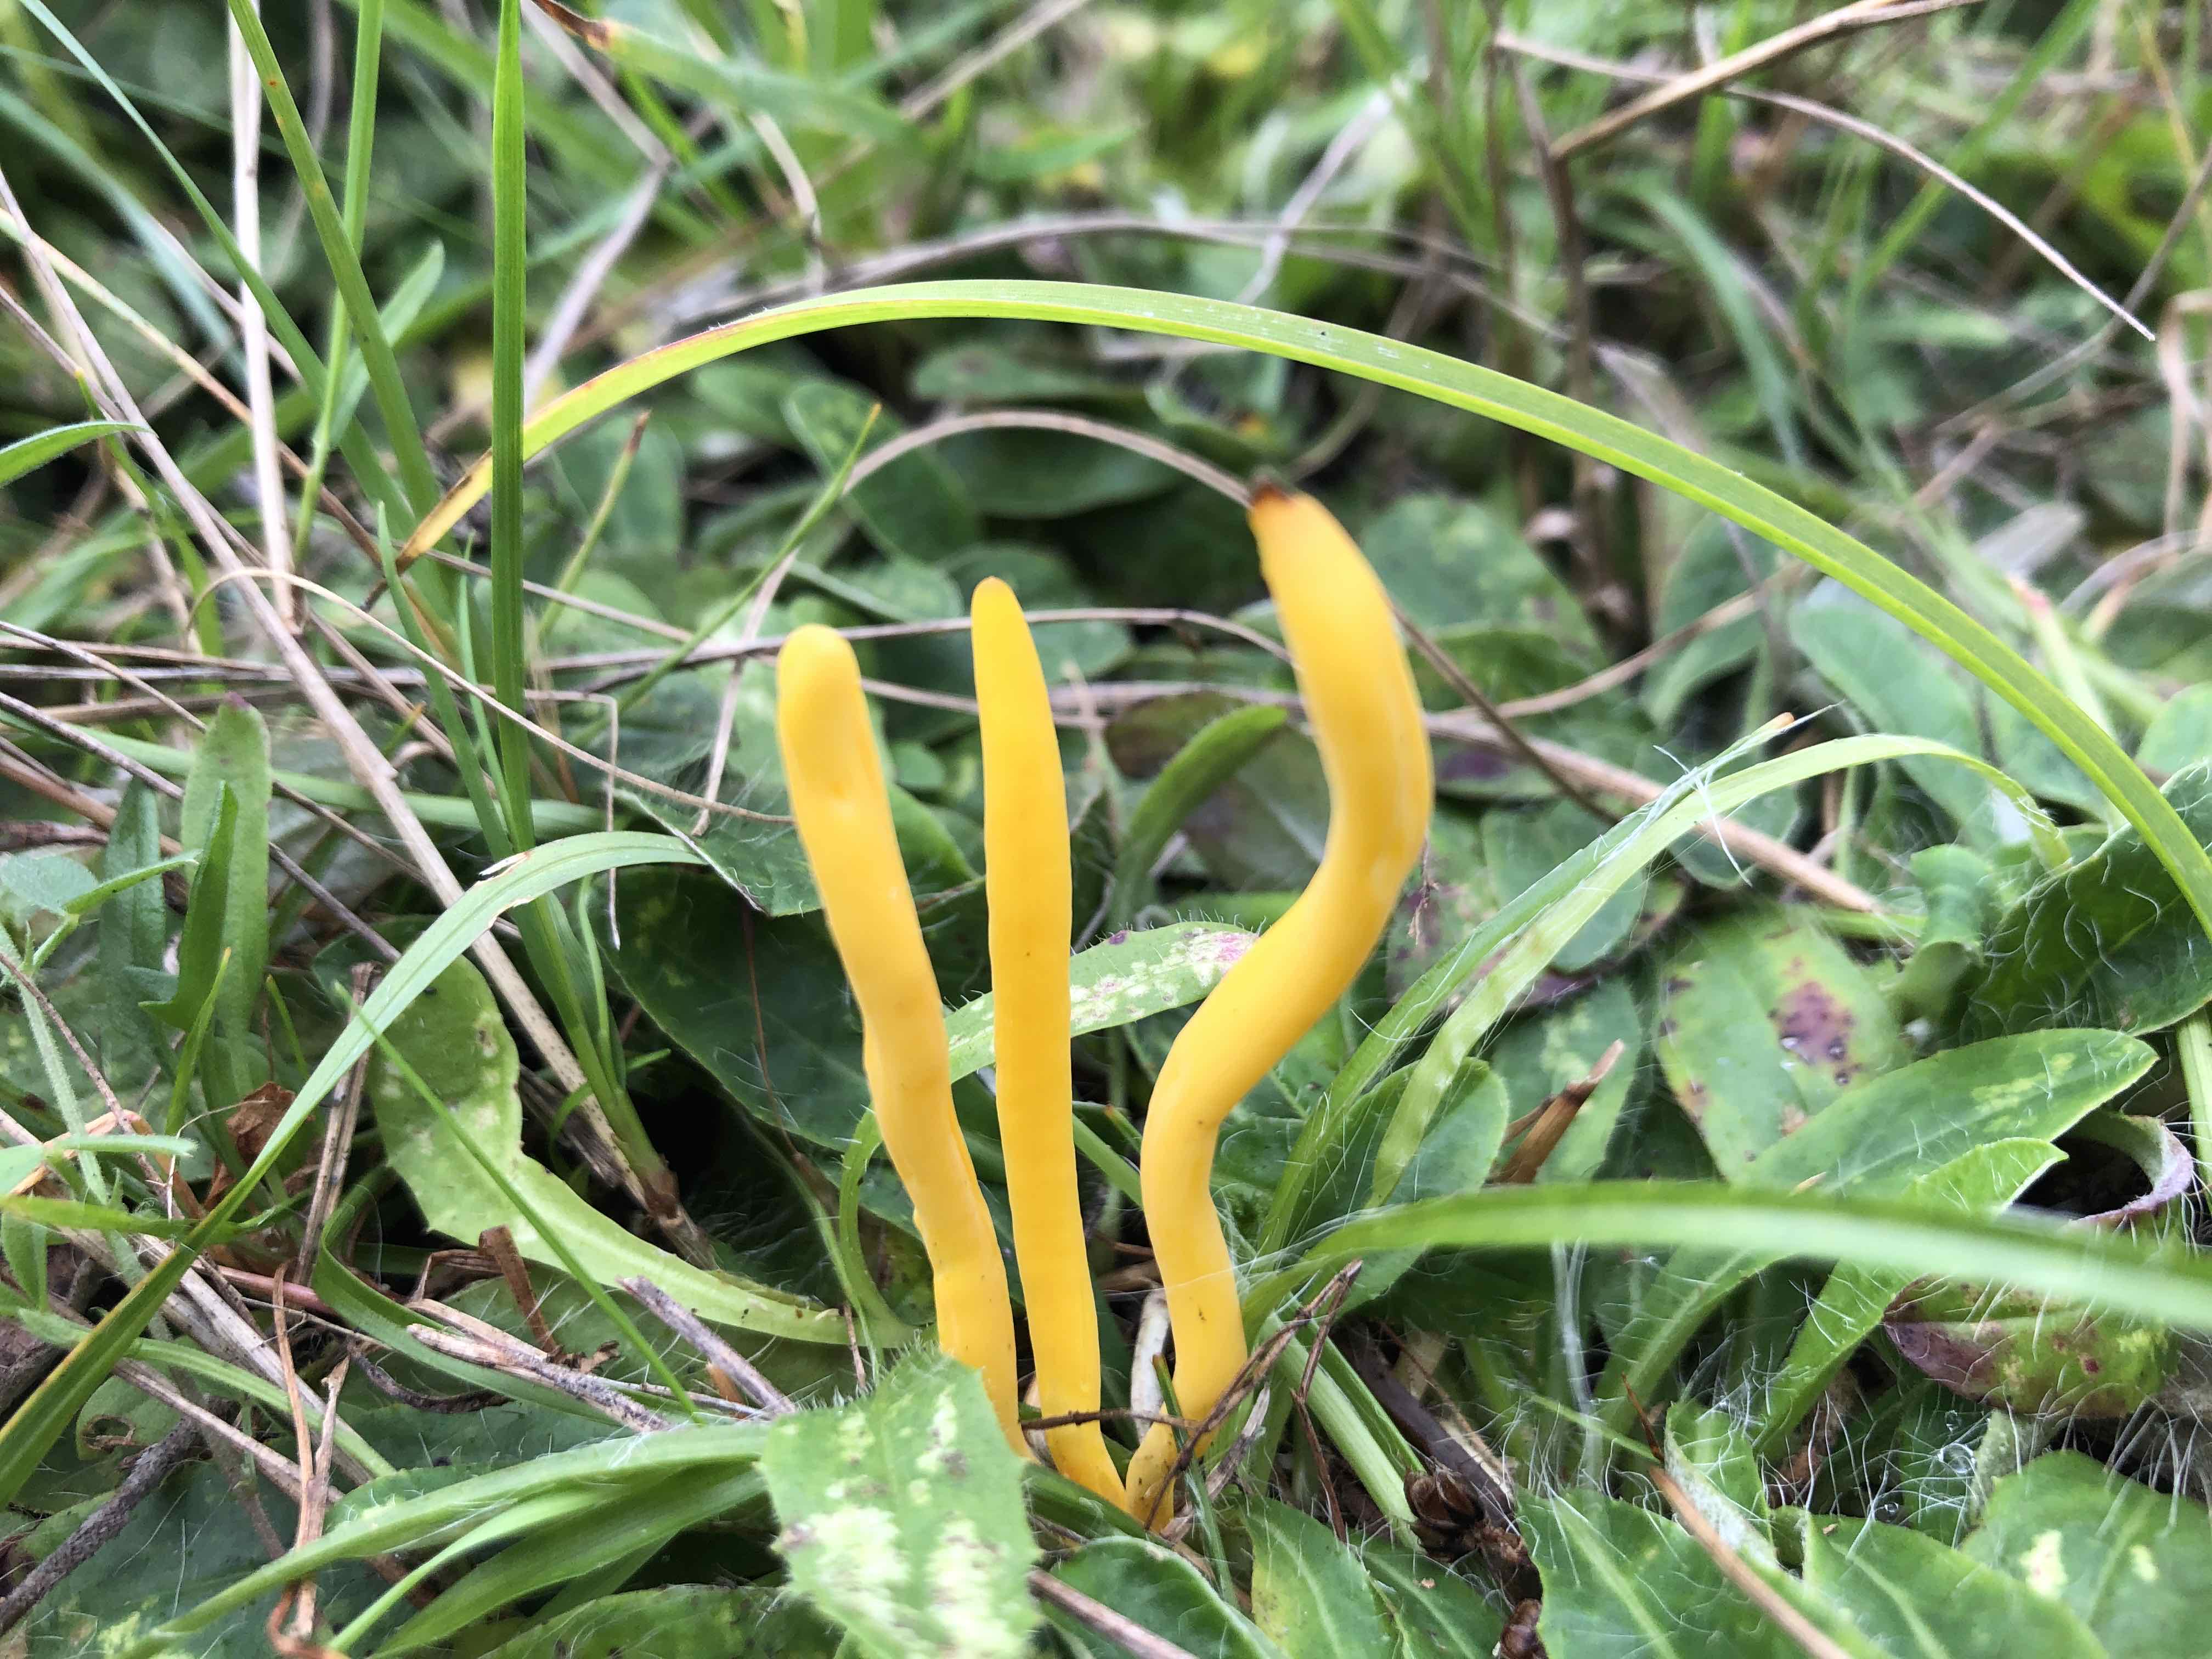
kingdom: Fungi
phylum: Basidiomycota
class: Agaricomycetes
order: Agaricales
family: Clavariaceae
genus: Clavulinopsis
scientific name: Clavulinopsis helvola
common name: orangegul køllesvamp
